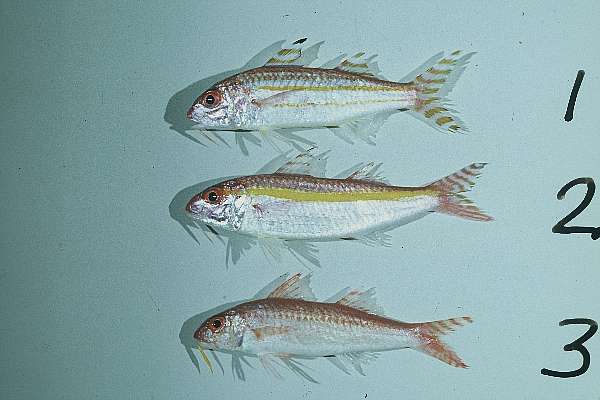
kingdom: Animalia
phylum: Chordata
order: Perciformes
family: Mullidae
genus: Upeneus
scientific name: Upeneus guttatus
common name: Spotted goatfish
